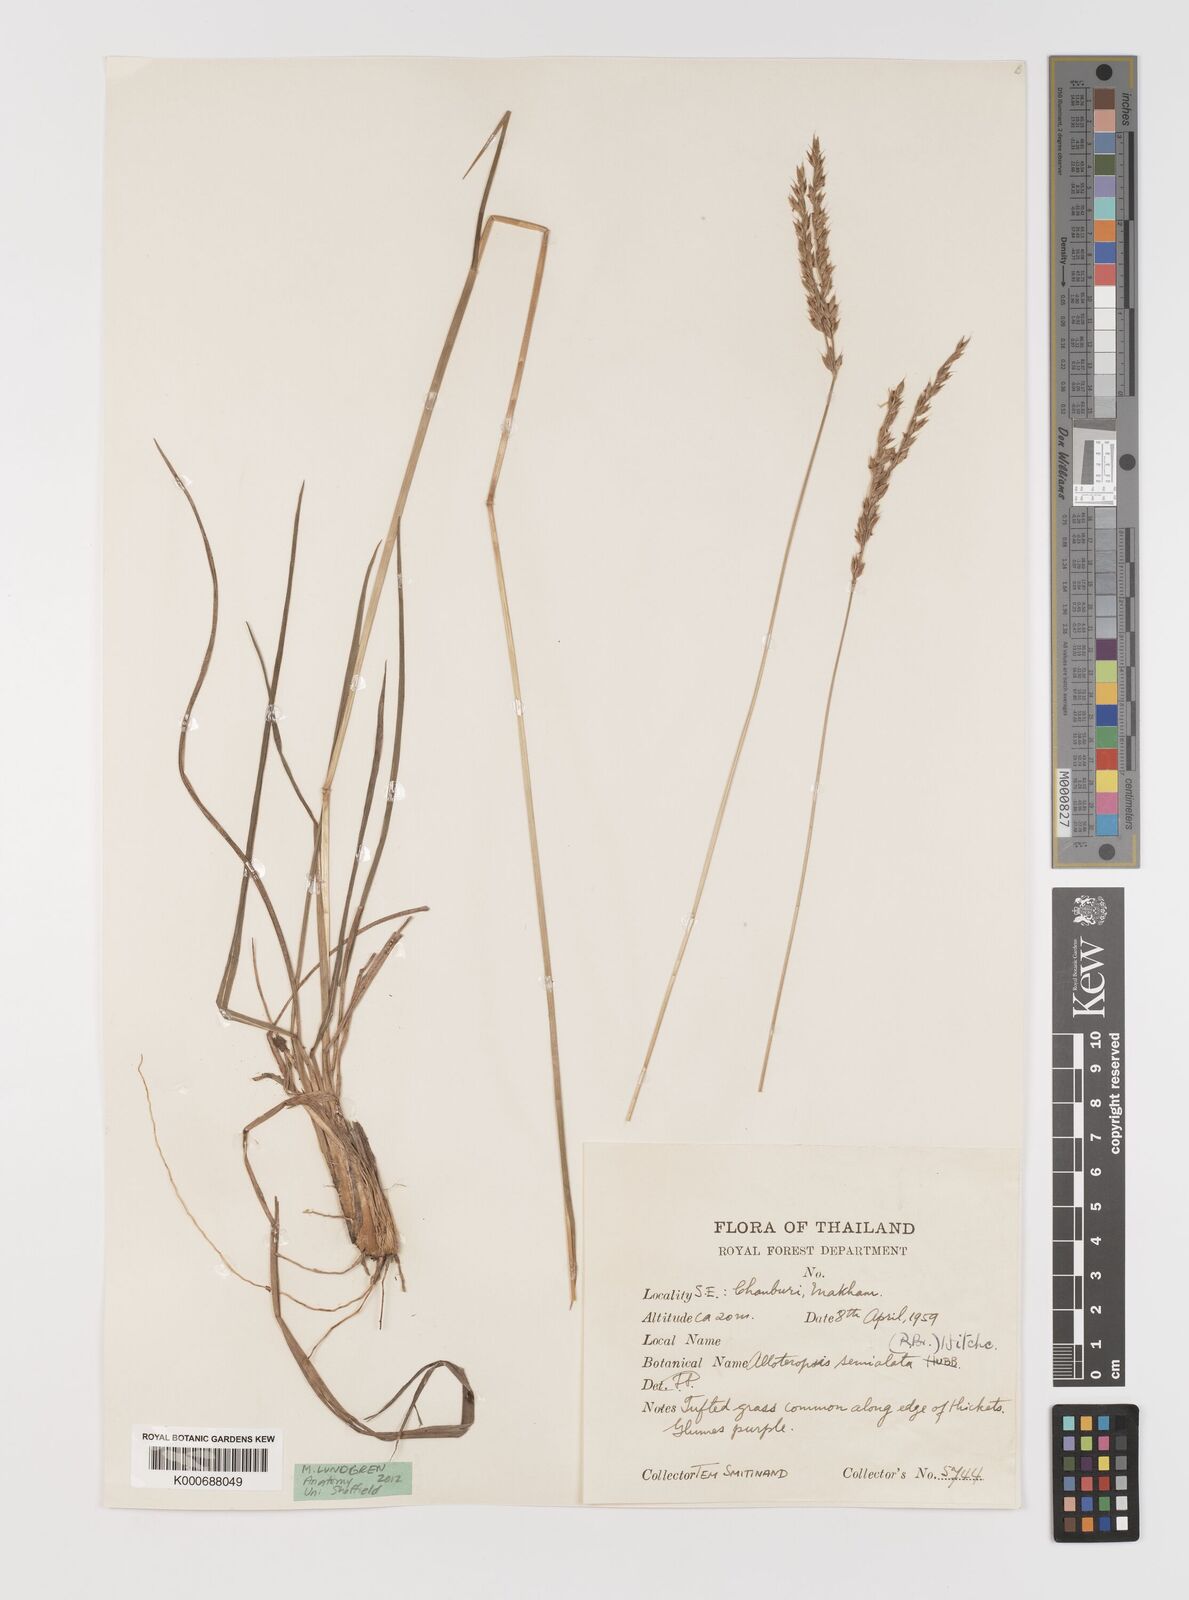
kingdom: Plantae
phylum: Tracheophyta
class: Liliopsida
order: Poales
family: Poaceae
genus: Alloteropsis
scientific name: Alloteropsis semialata
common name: Cockatoo grass
